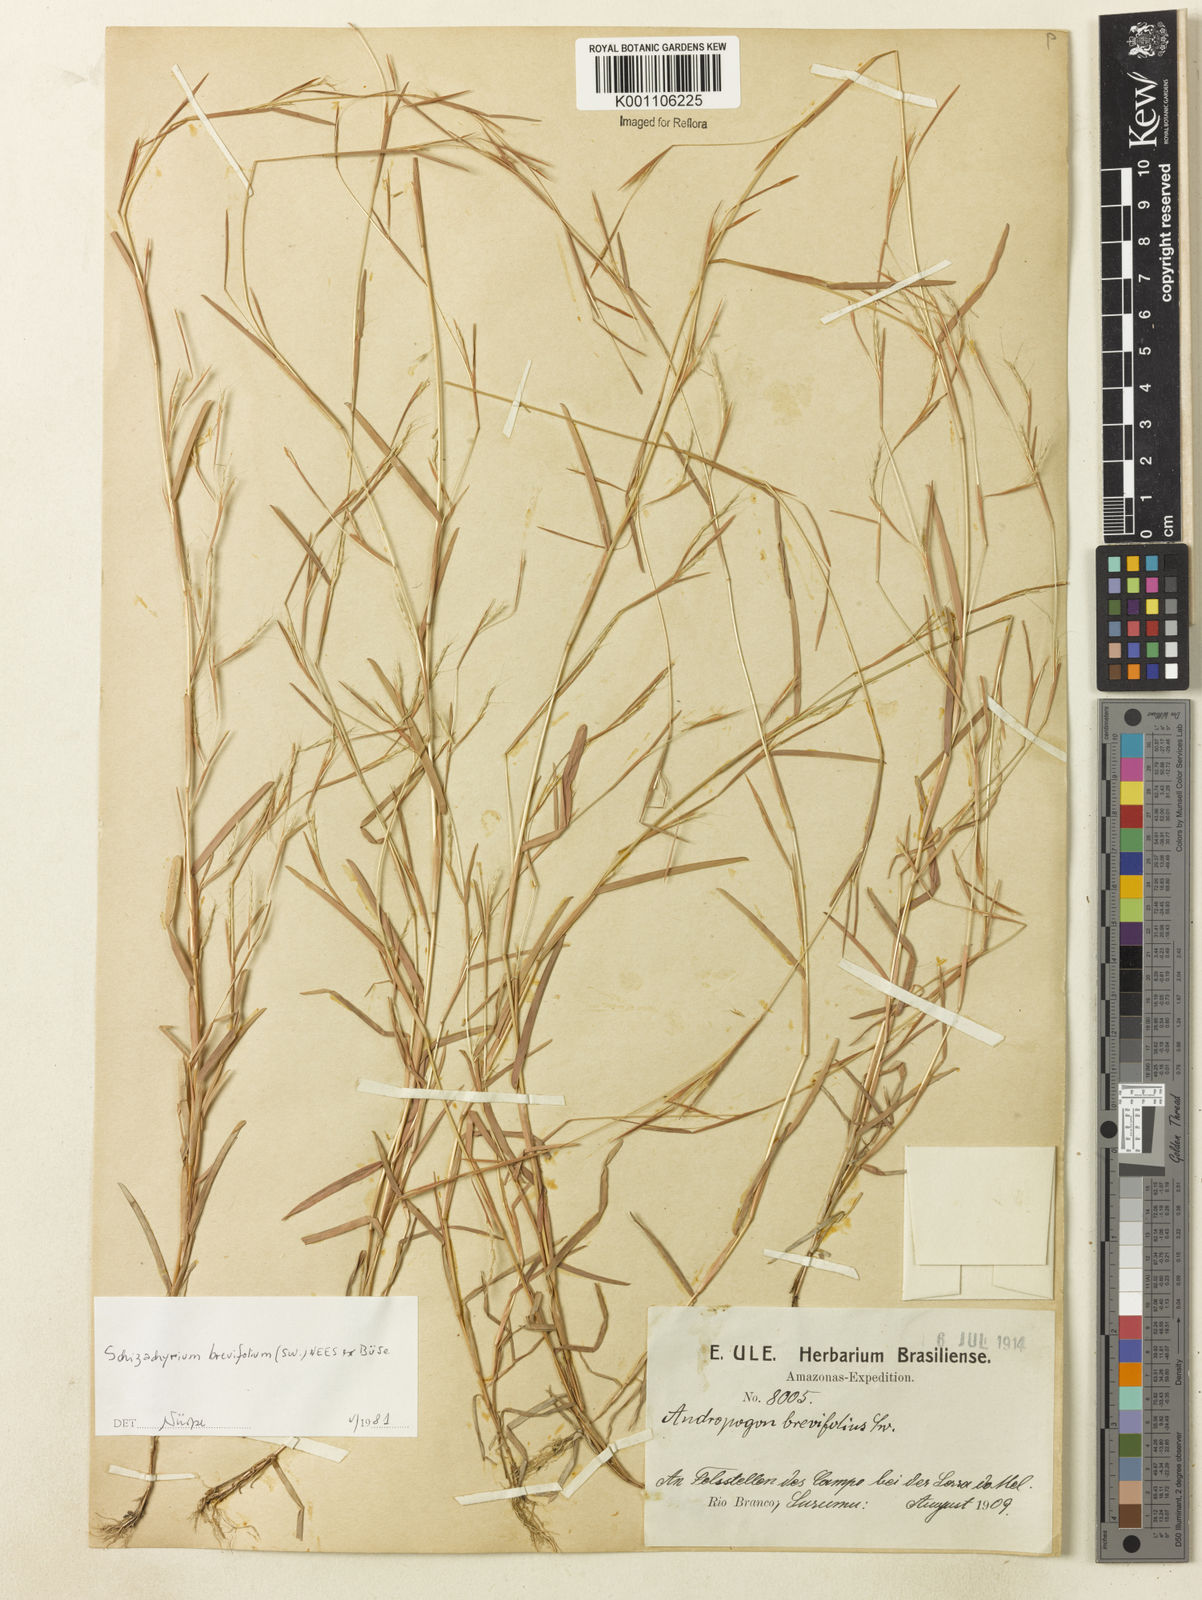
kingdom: Plantae
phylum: Tracheophyta
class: Liliopsida
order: Poales
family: Poaceae
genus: Schizachyrium
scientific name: Schizachyrium brevifolium
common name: Serillo dulce
